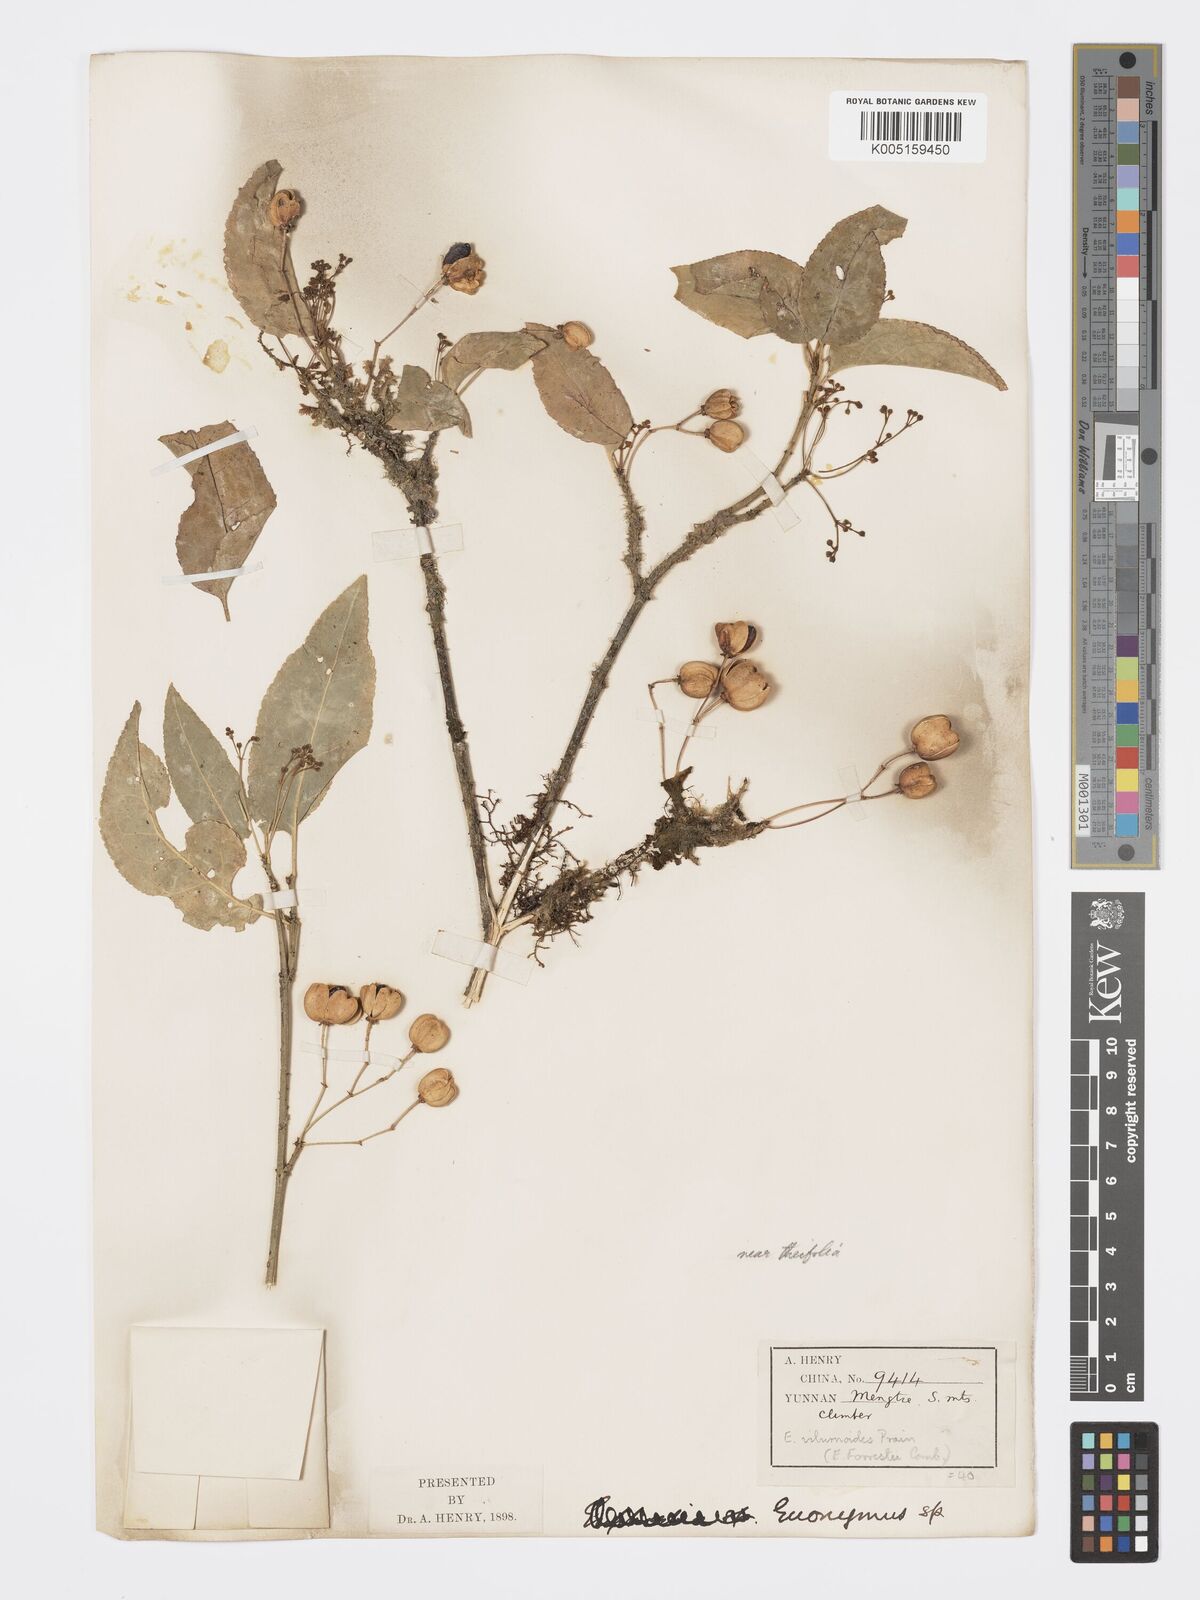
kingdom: Plantae
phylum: Tracheophyta
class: Magnoliopsida
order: Celastrales
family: Celastraceae
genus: Euonymus
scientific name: Euonymus viburnoides
